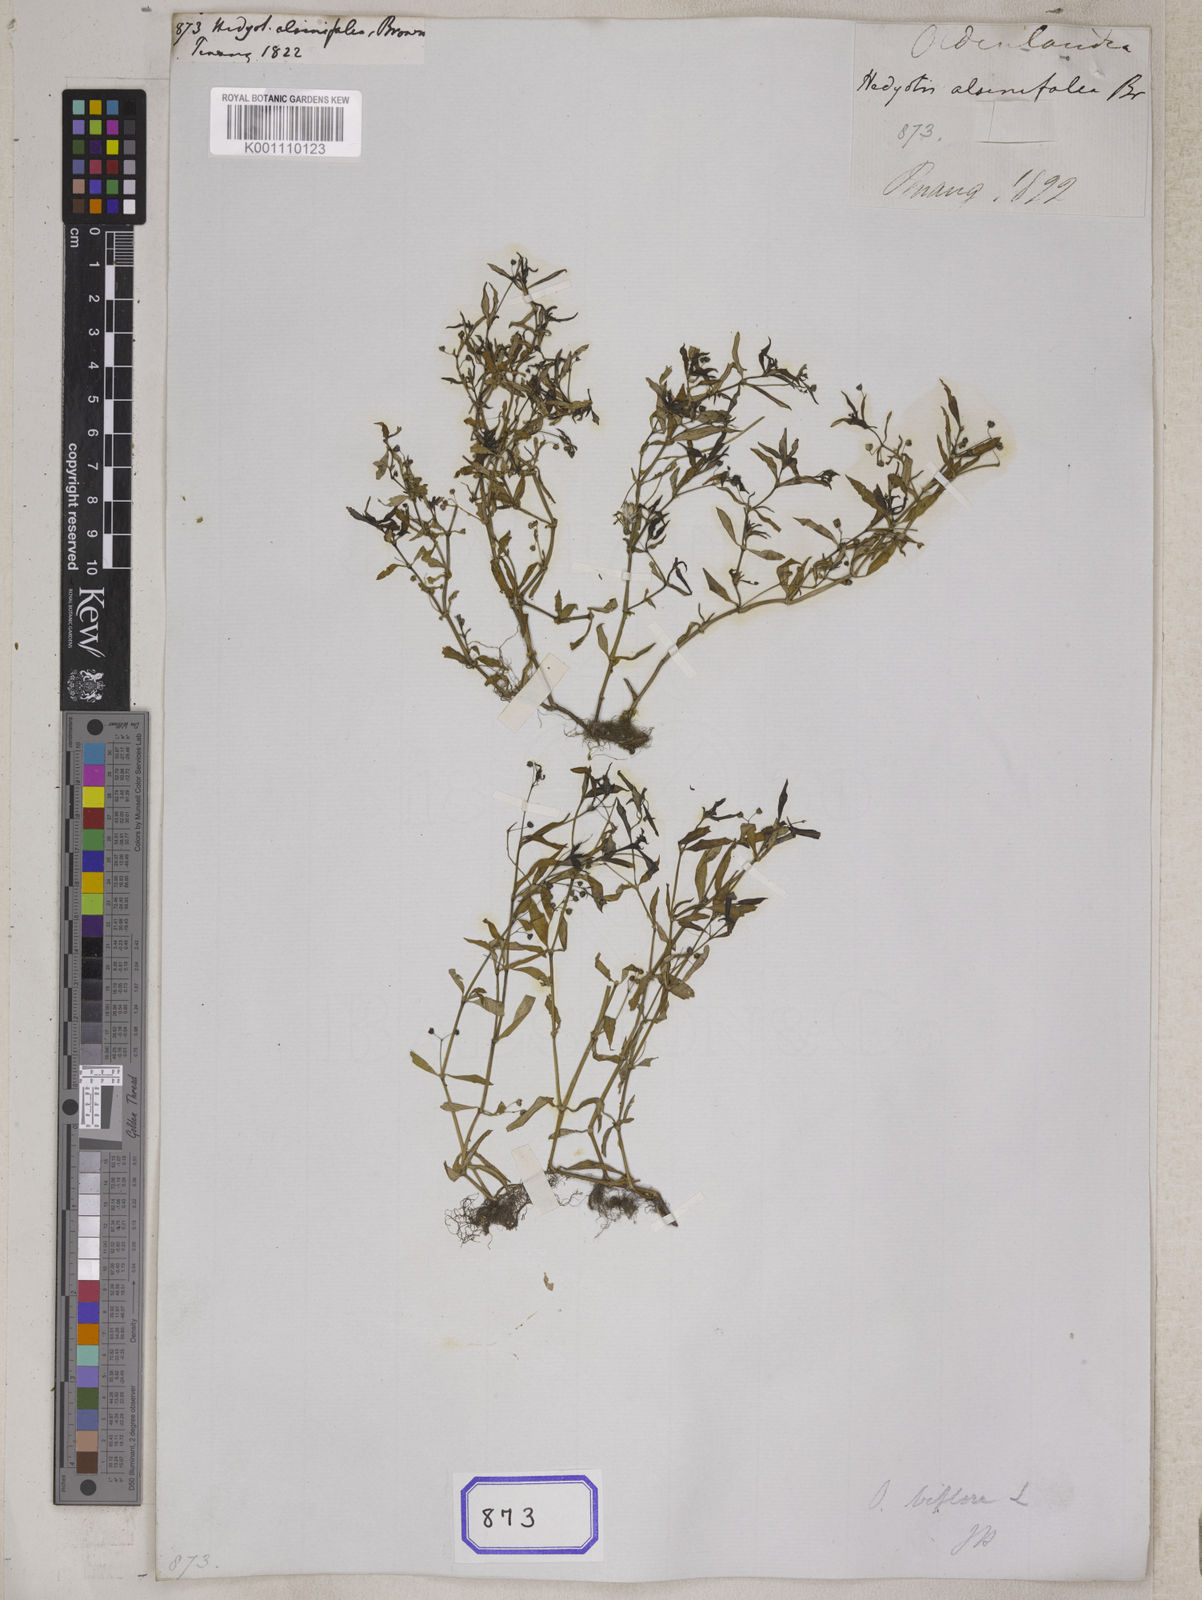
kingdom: Plantae
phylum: Tracheophyta
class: Magnoliopsida
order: Gentianales
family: Rubiaceae
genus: Hedyotis
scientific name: Hedyotis
